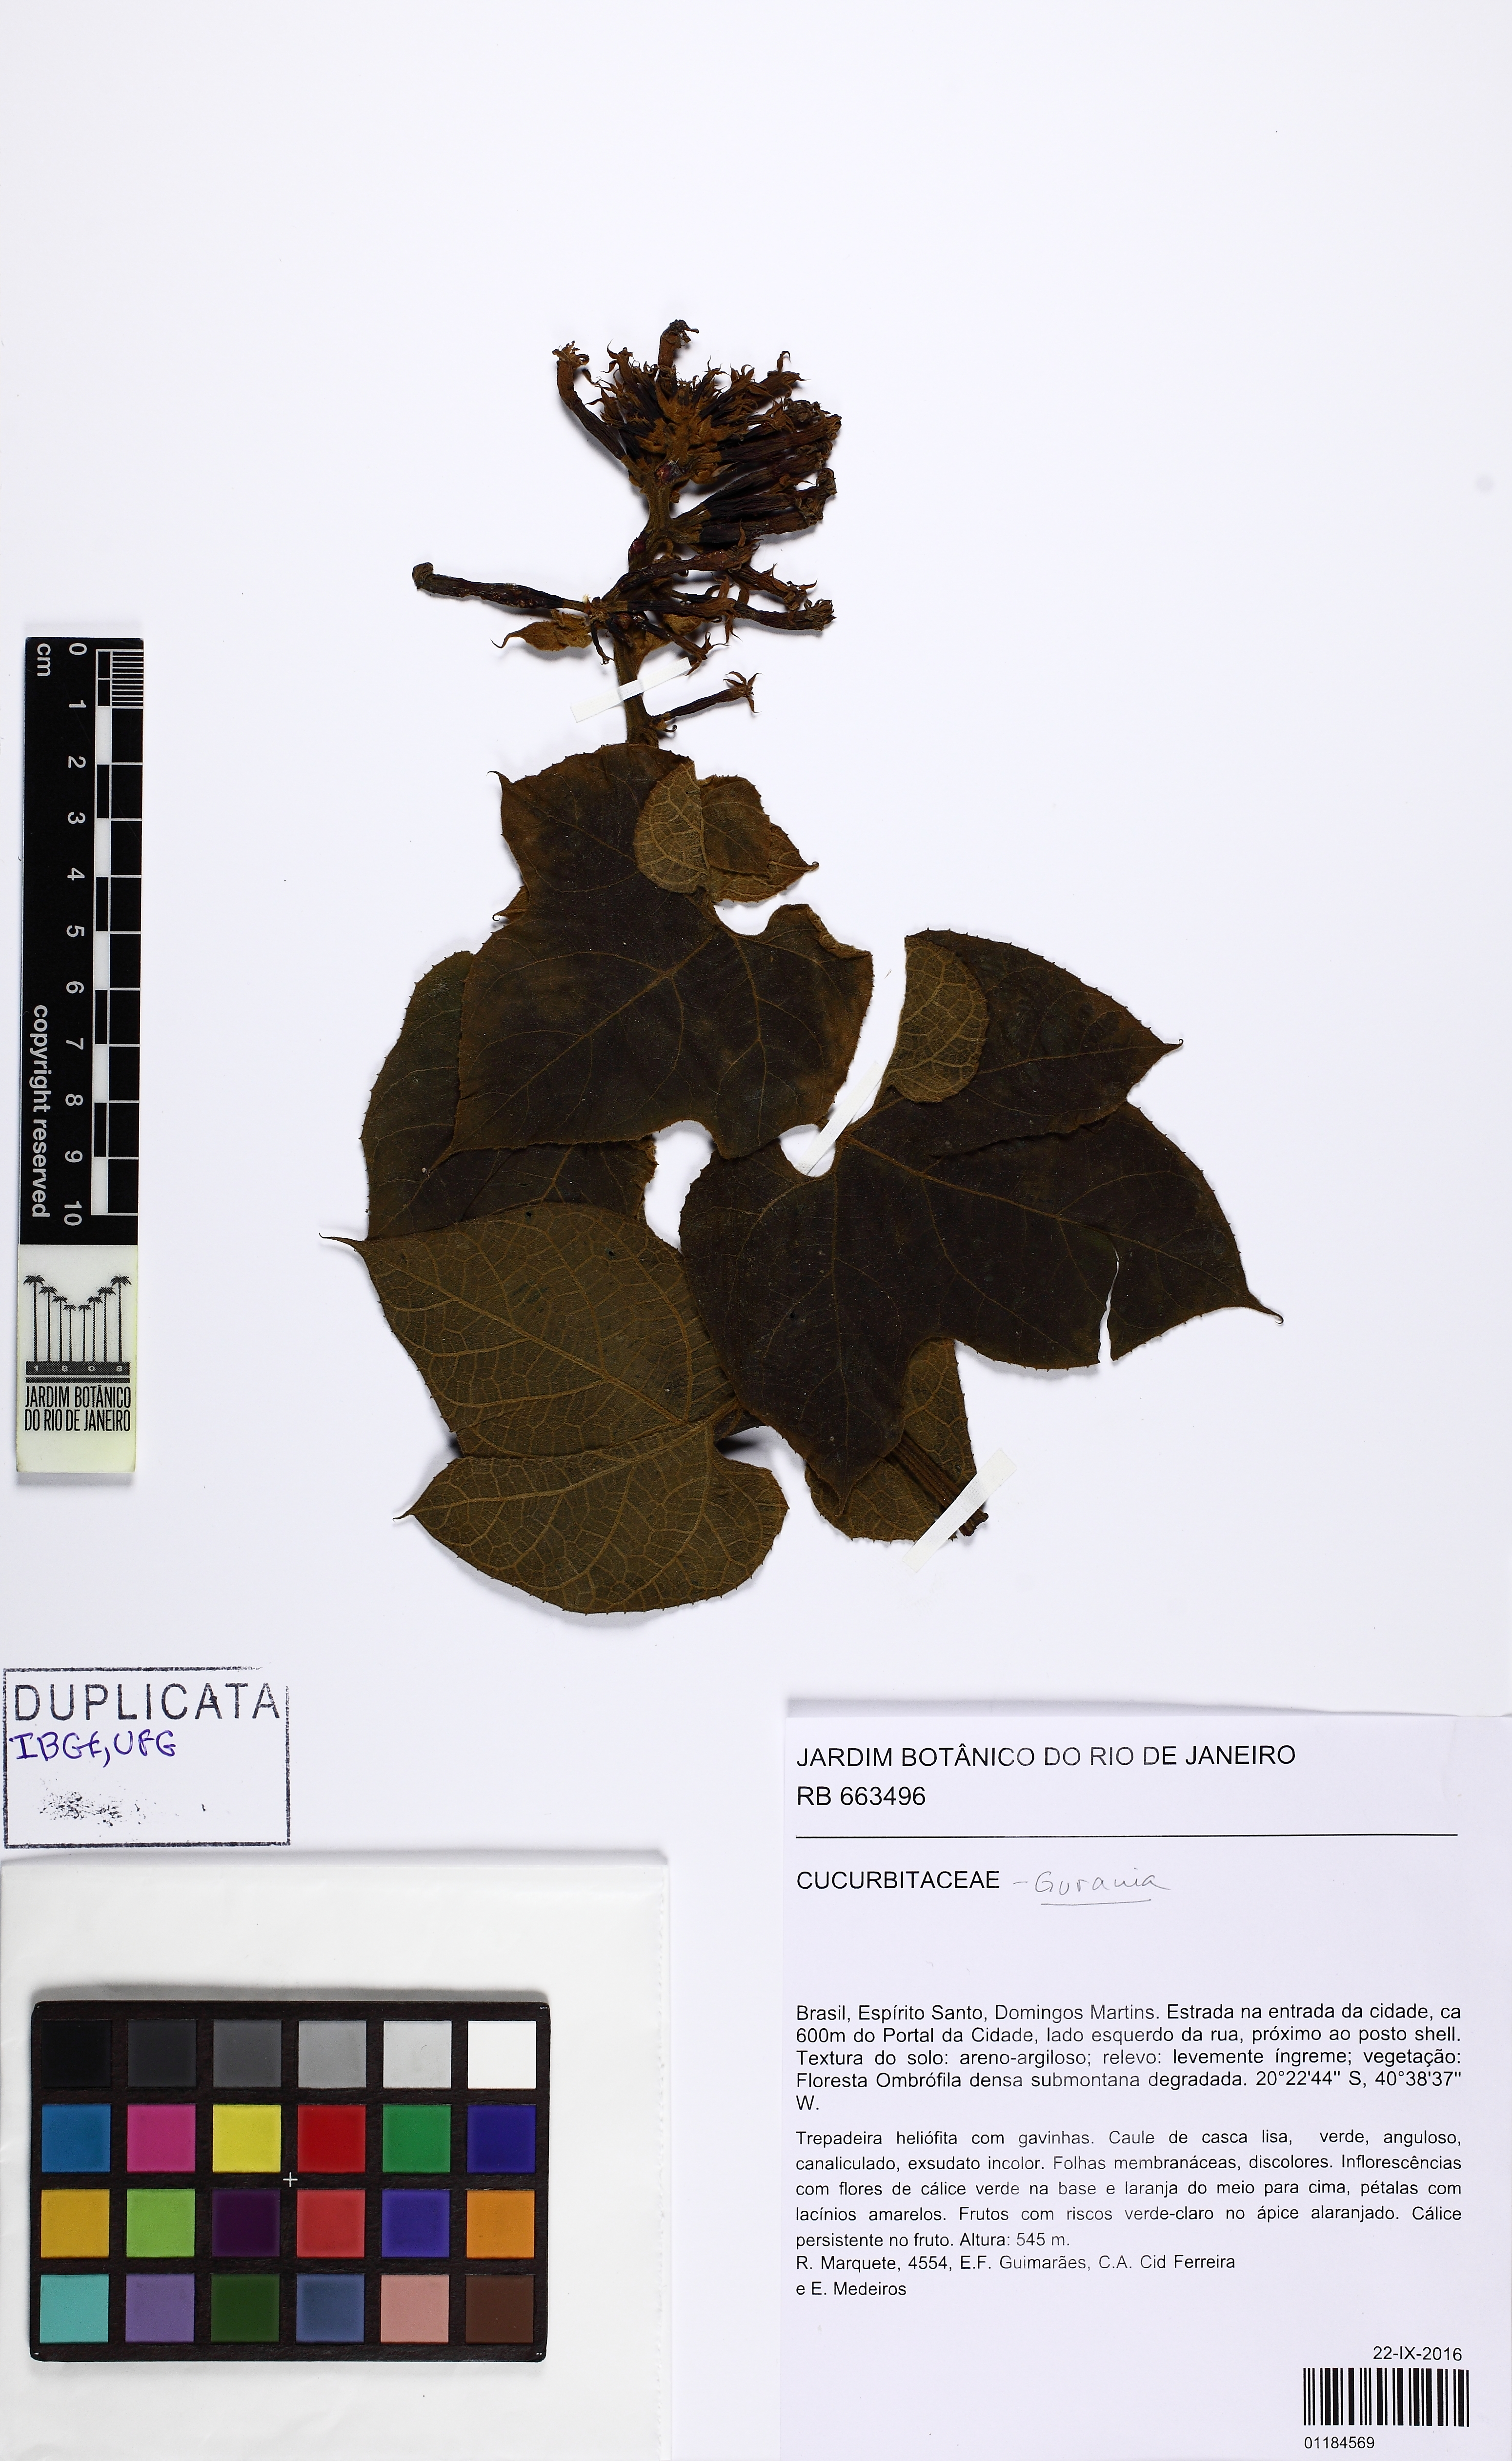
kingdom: Plantae
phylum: Tracheophyta
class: Magnoliopsida
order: Cucurbitales
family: Cucurbitaceae
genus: Gurania
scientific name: Gurania
